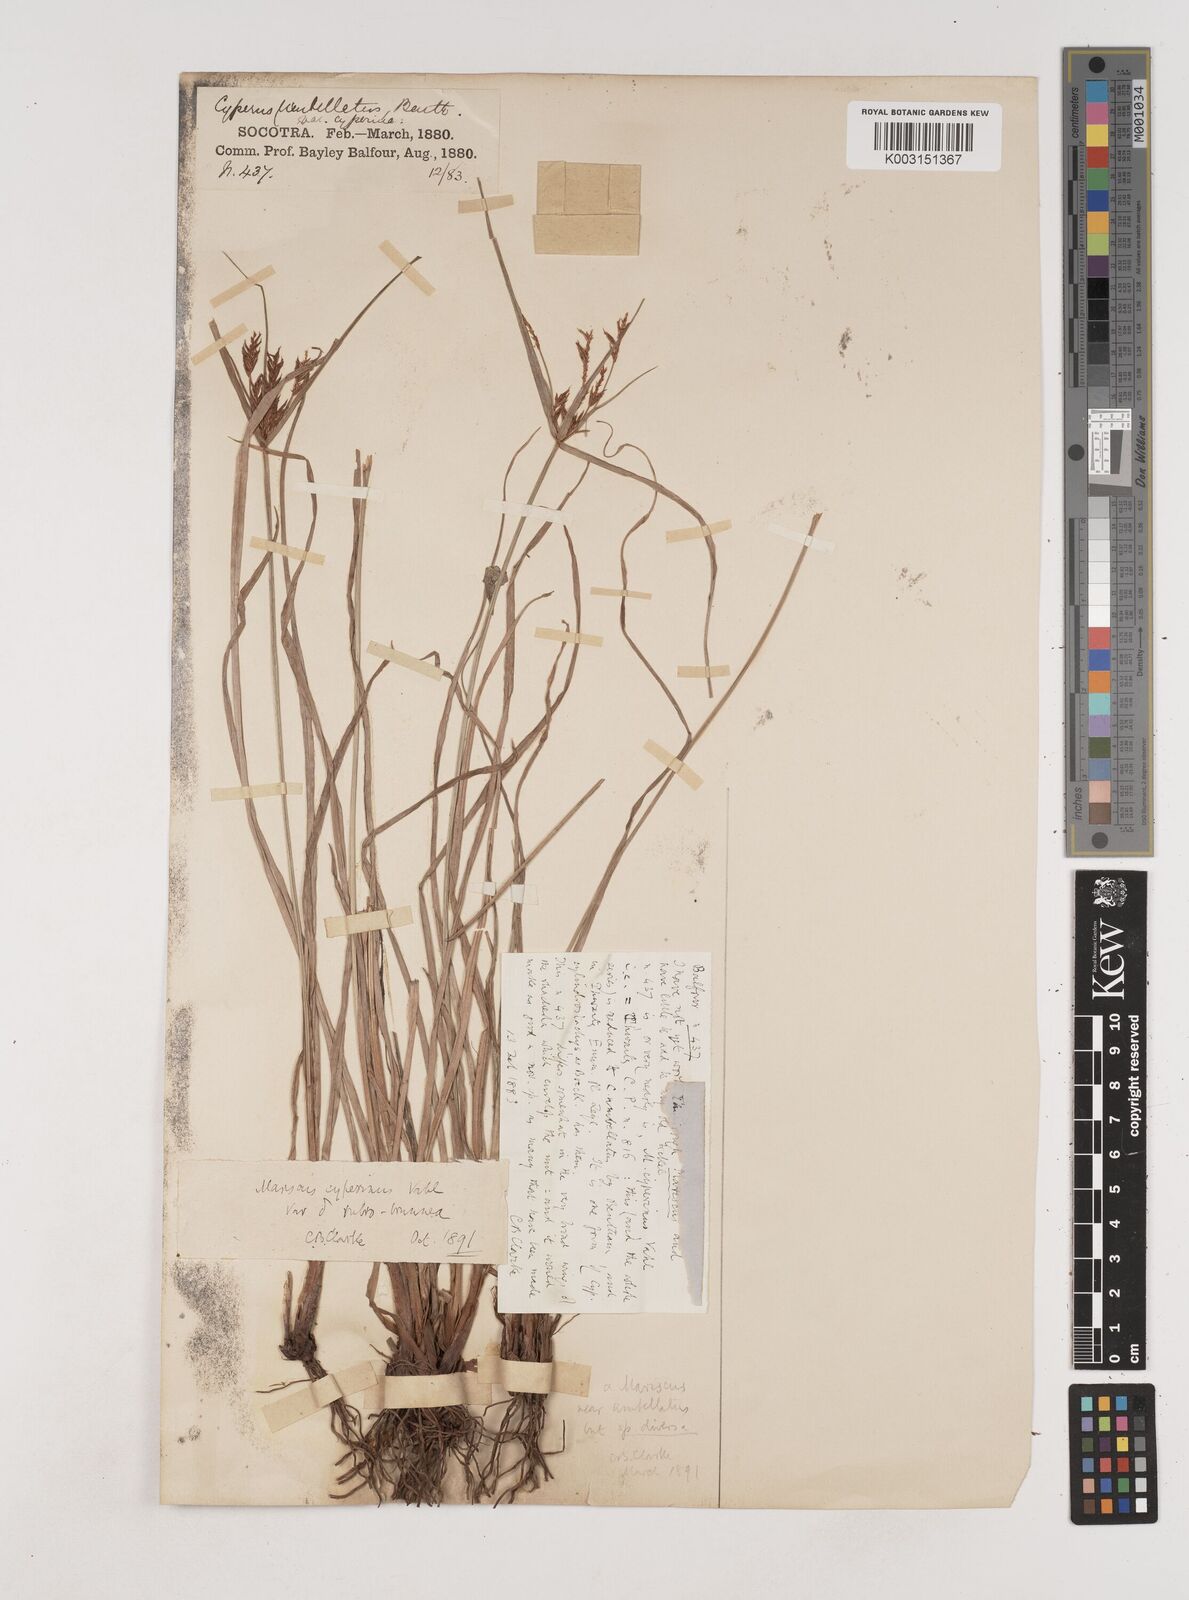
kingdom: Plantae
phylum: Tracheophyta
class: Liliopsida
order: Poales
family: Cyperaceae
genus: Cyperus
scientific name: Cyperus cyperinus
